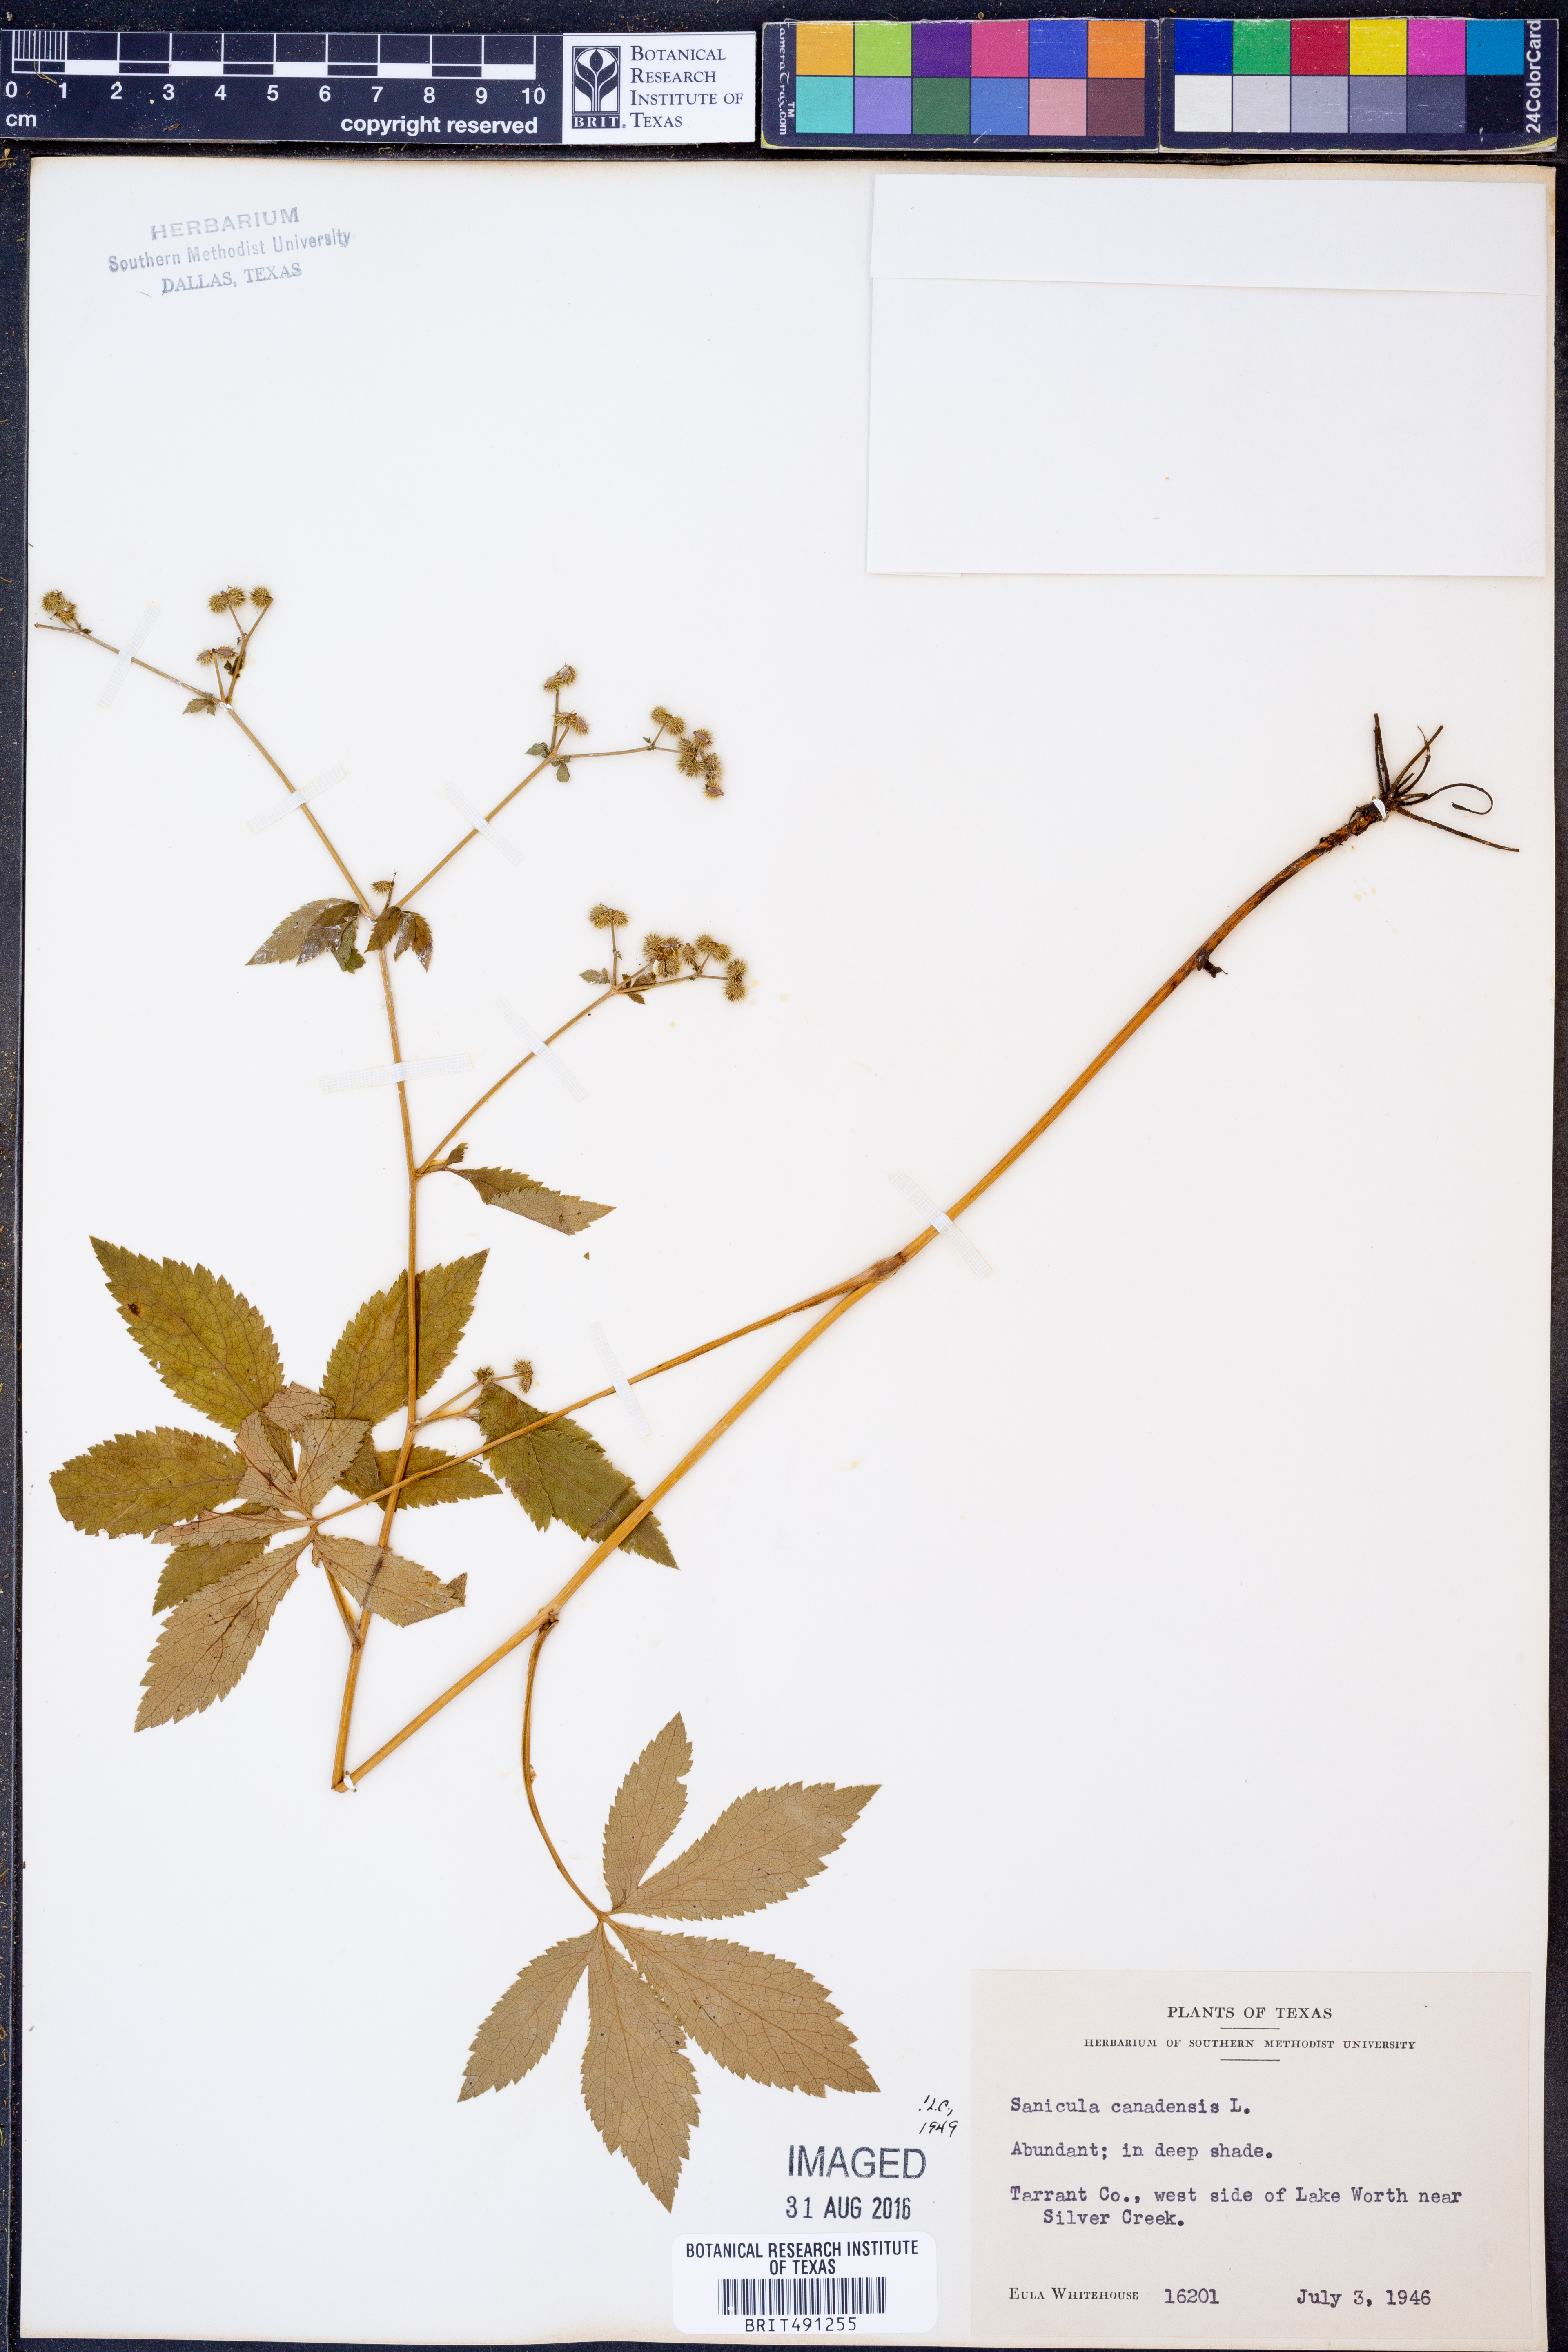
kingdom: Plantae
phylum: Tracheophyta
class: Magnoliopsida
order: Apiales
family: Apiaceae
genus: Sanicula
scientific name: Sanicula canadensis
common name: Canada sanicle
